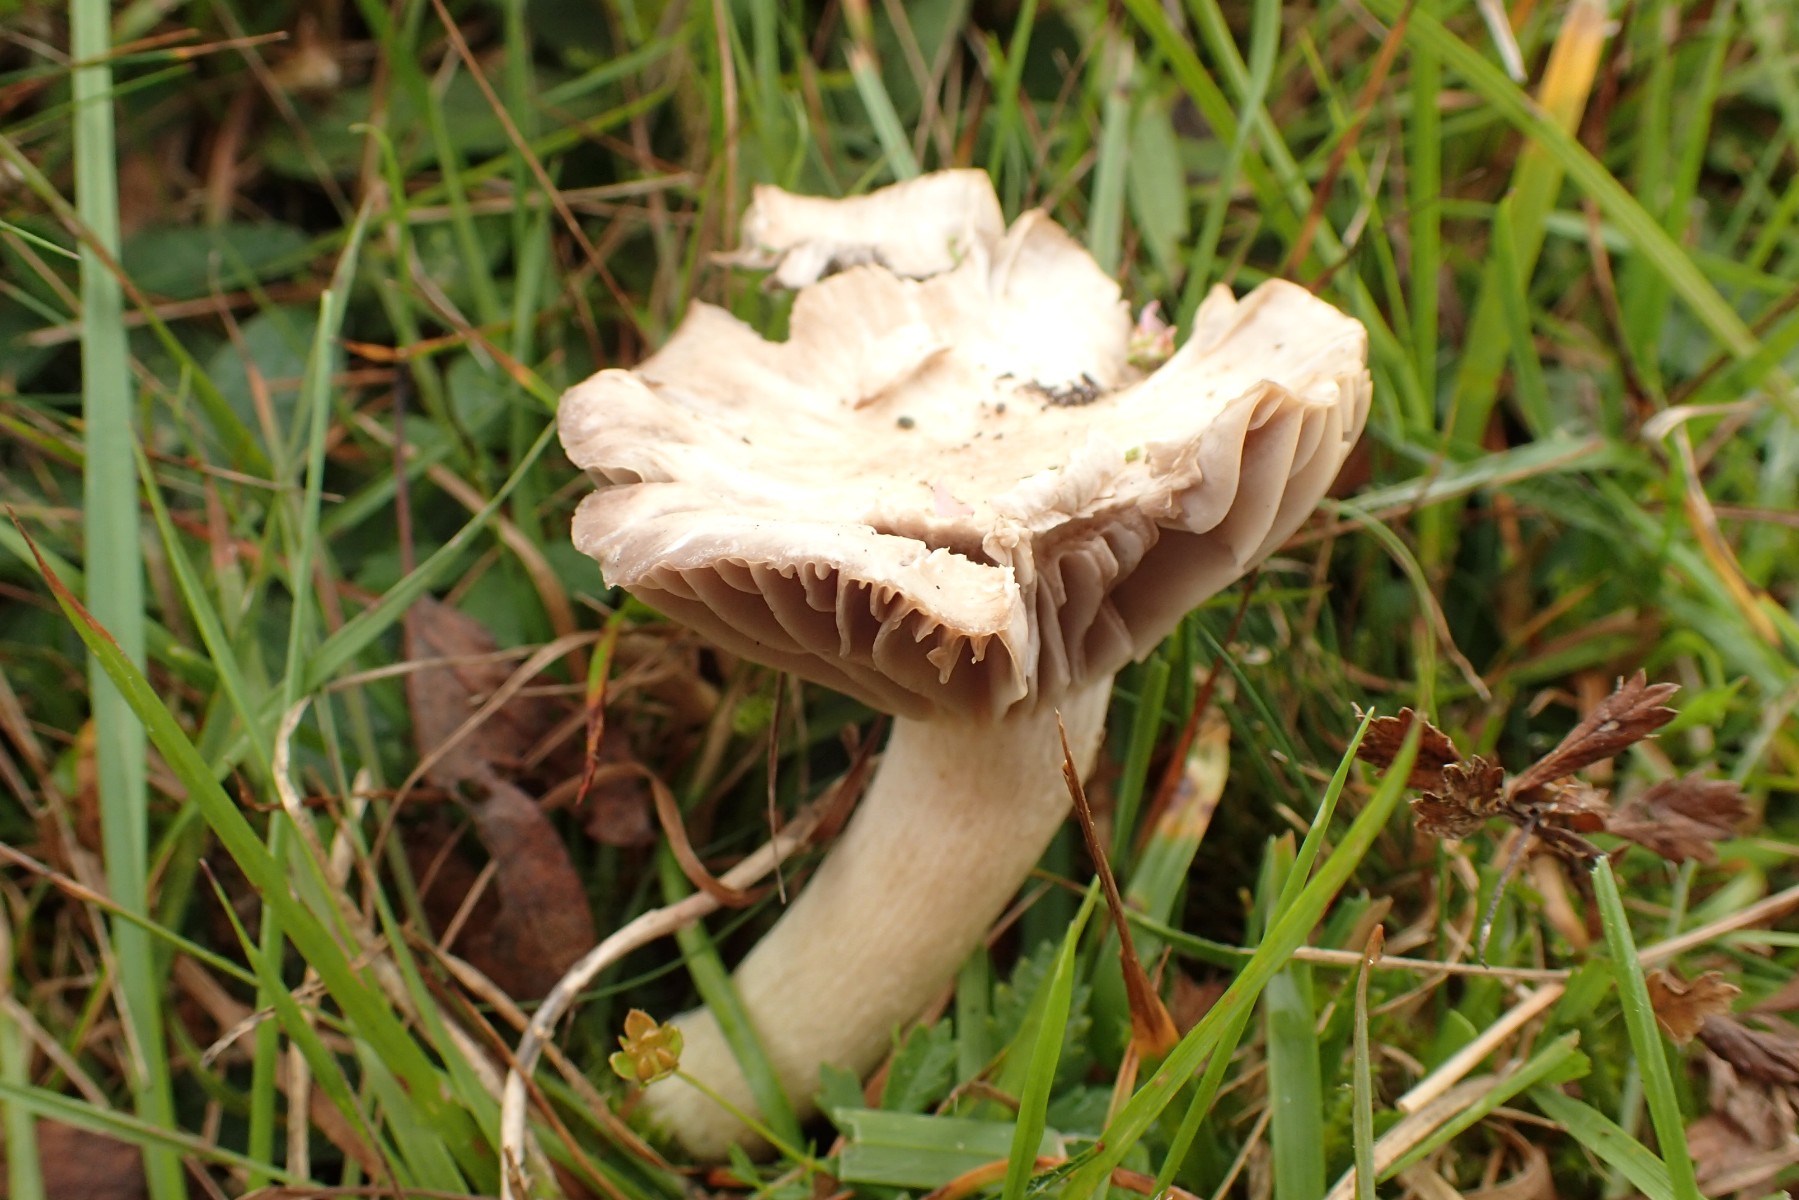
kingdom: Fungi
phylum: Basidiomycota
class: Agaricomycetes
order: Agaricales
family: Hygrophoraceae
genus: Cuphophyllus
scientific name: Cuphophyllus flavipes
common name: gulfodet vokshat
